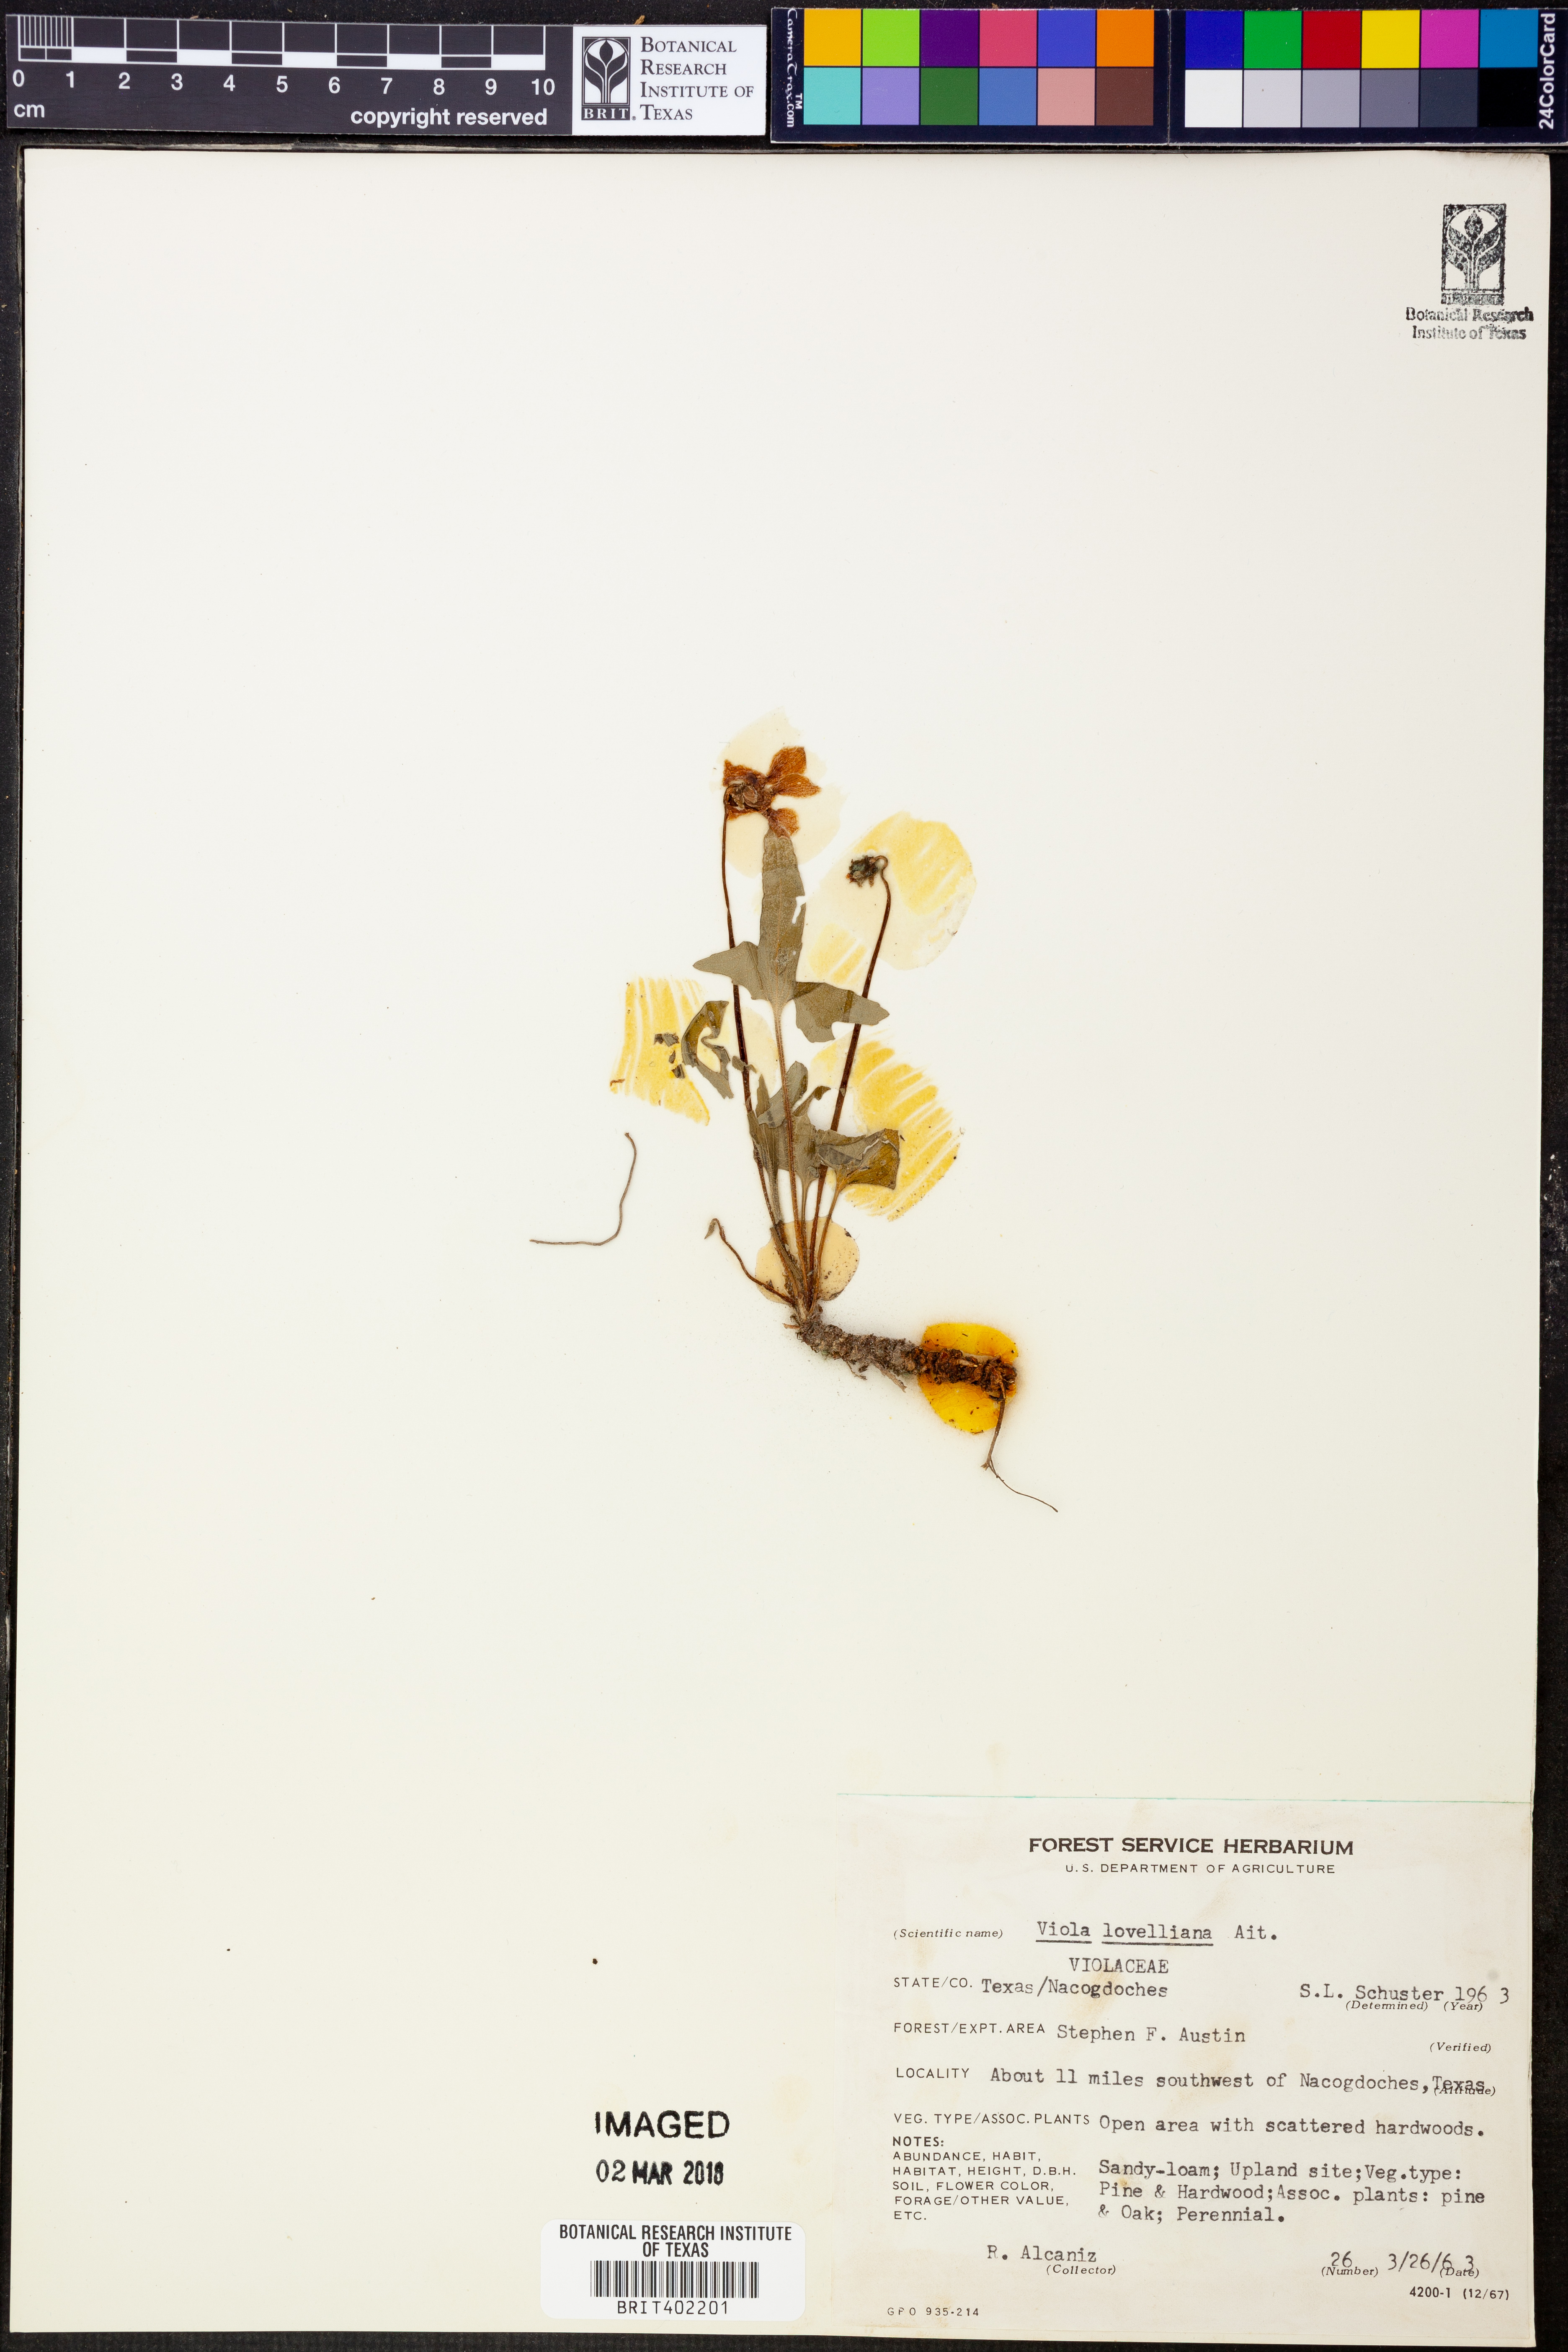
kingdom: Plantae
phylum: Tracheophyta
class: Magnoliopsida
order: Malpighiales
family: Violaceae
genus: Viola
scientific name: Viola lovelliana
